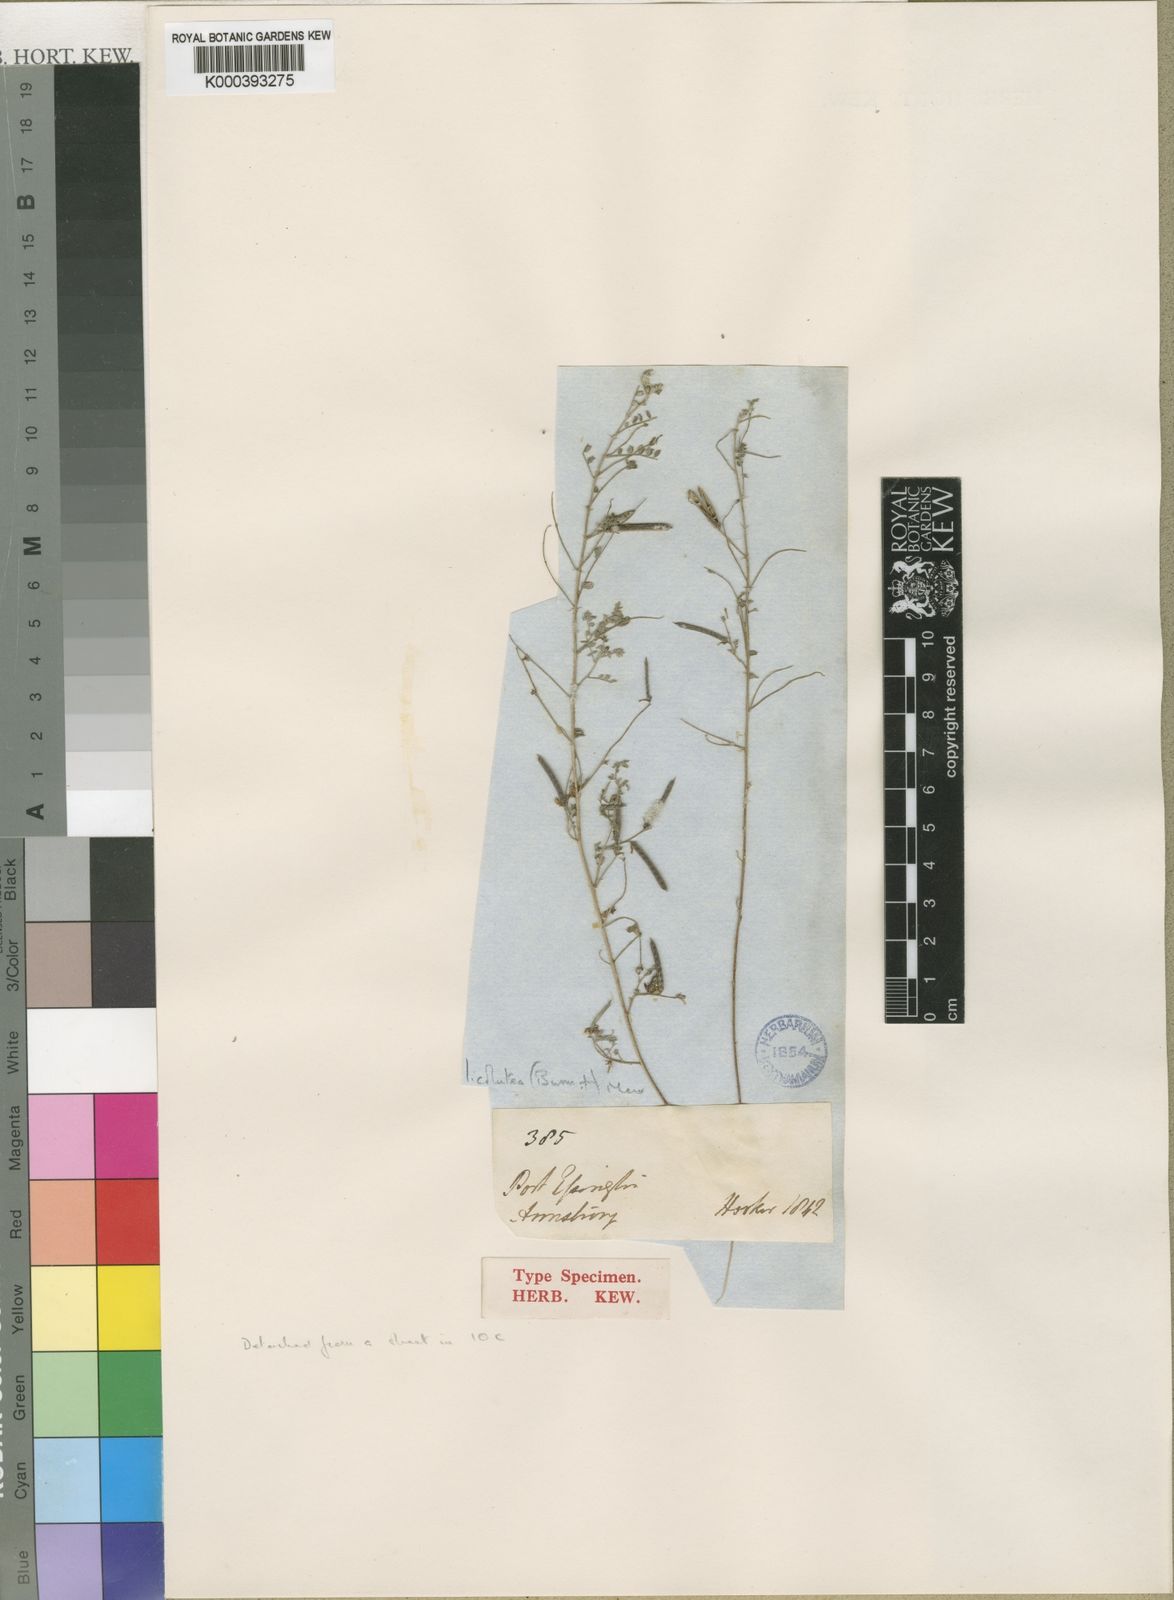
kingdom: Plantae
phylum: Tracheophyta
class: Magnoliopsida
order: Fabales
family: Fabaceae
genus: Indigofera
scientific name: Indigofera colutea
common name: Rusty indigo
